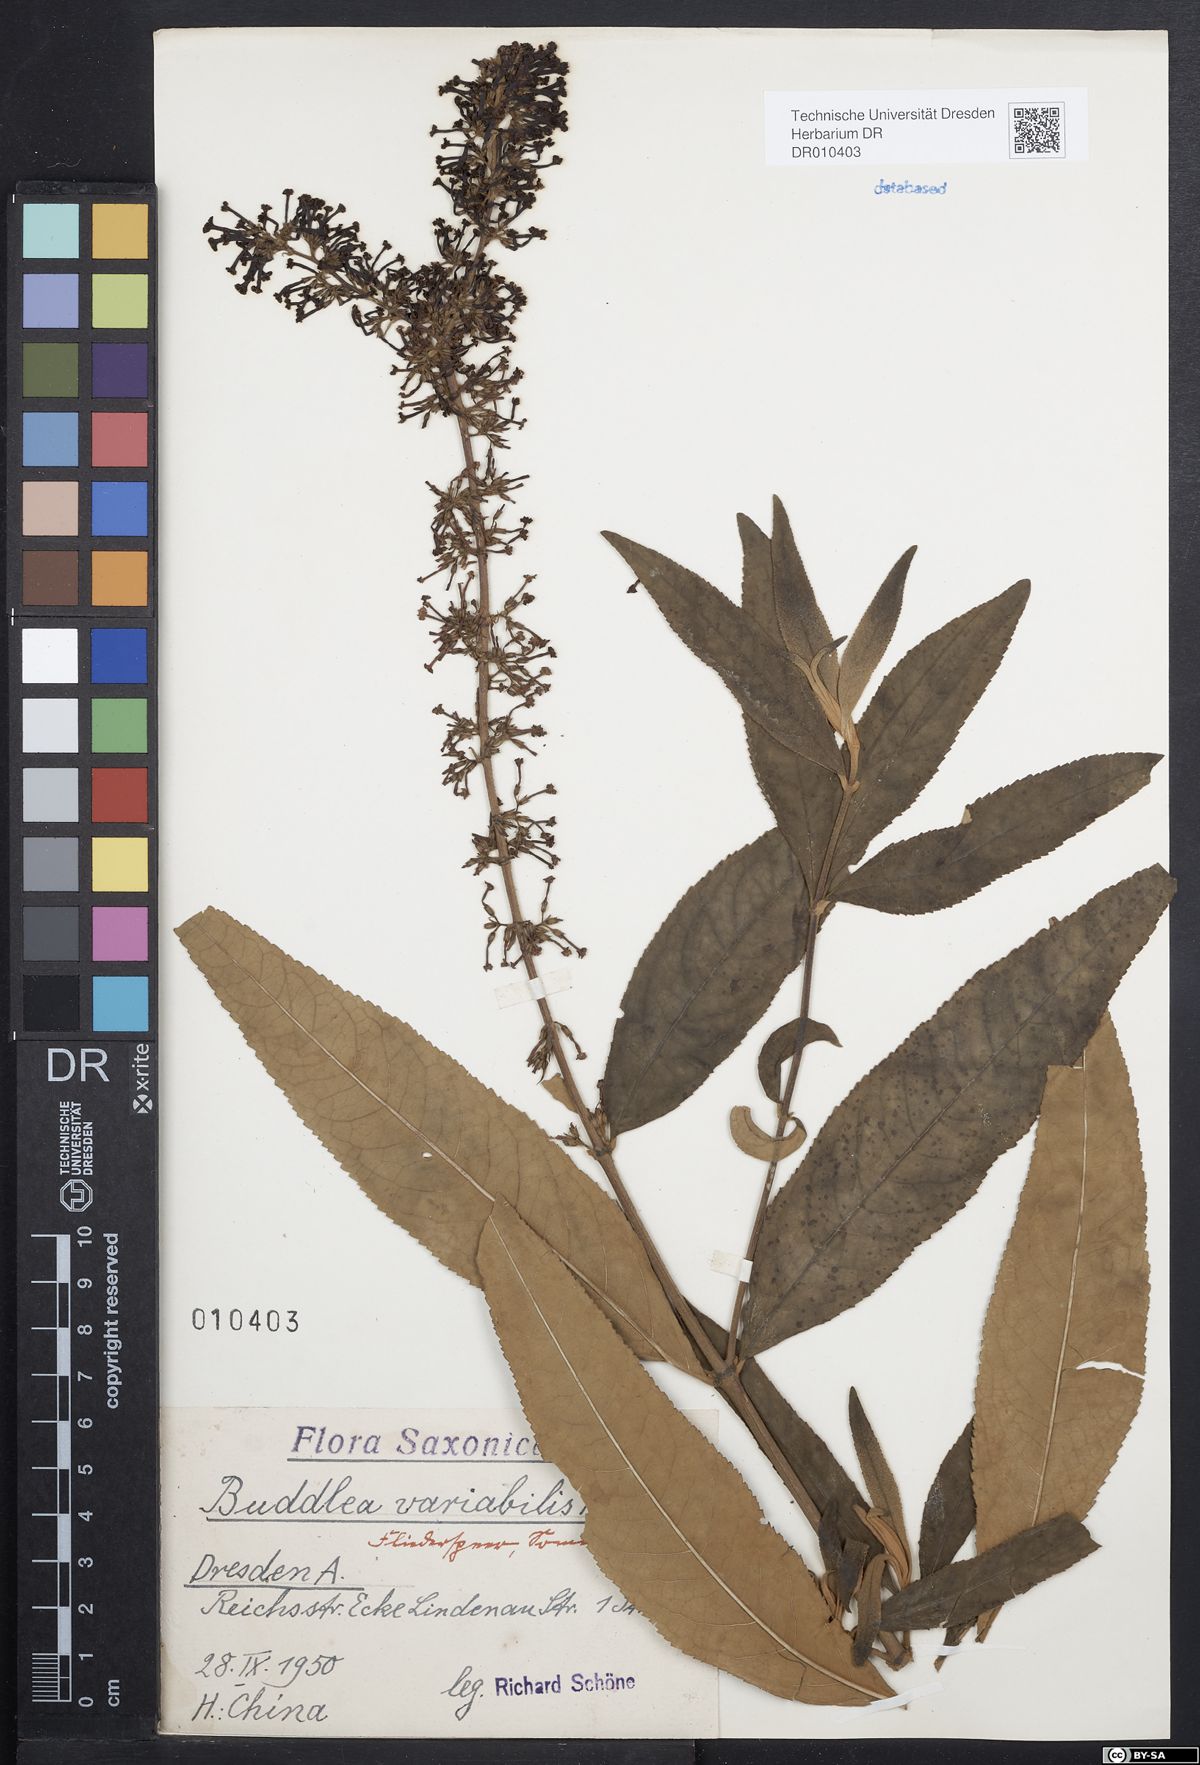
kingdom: Plantae
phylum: Tracheophyta
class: Magnoliopsida
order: Lamiales
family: Scrophulariaceae
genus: Buddleja
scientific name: Buddleja davidii
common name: Butterfly-bush
